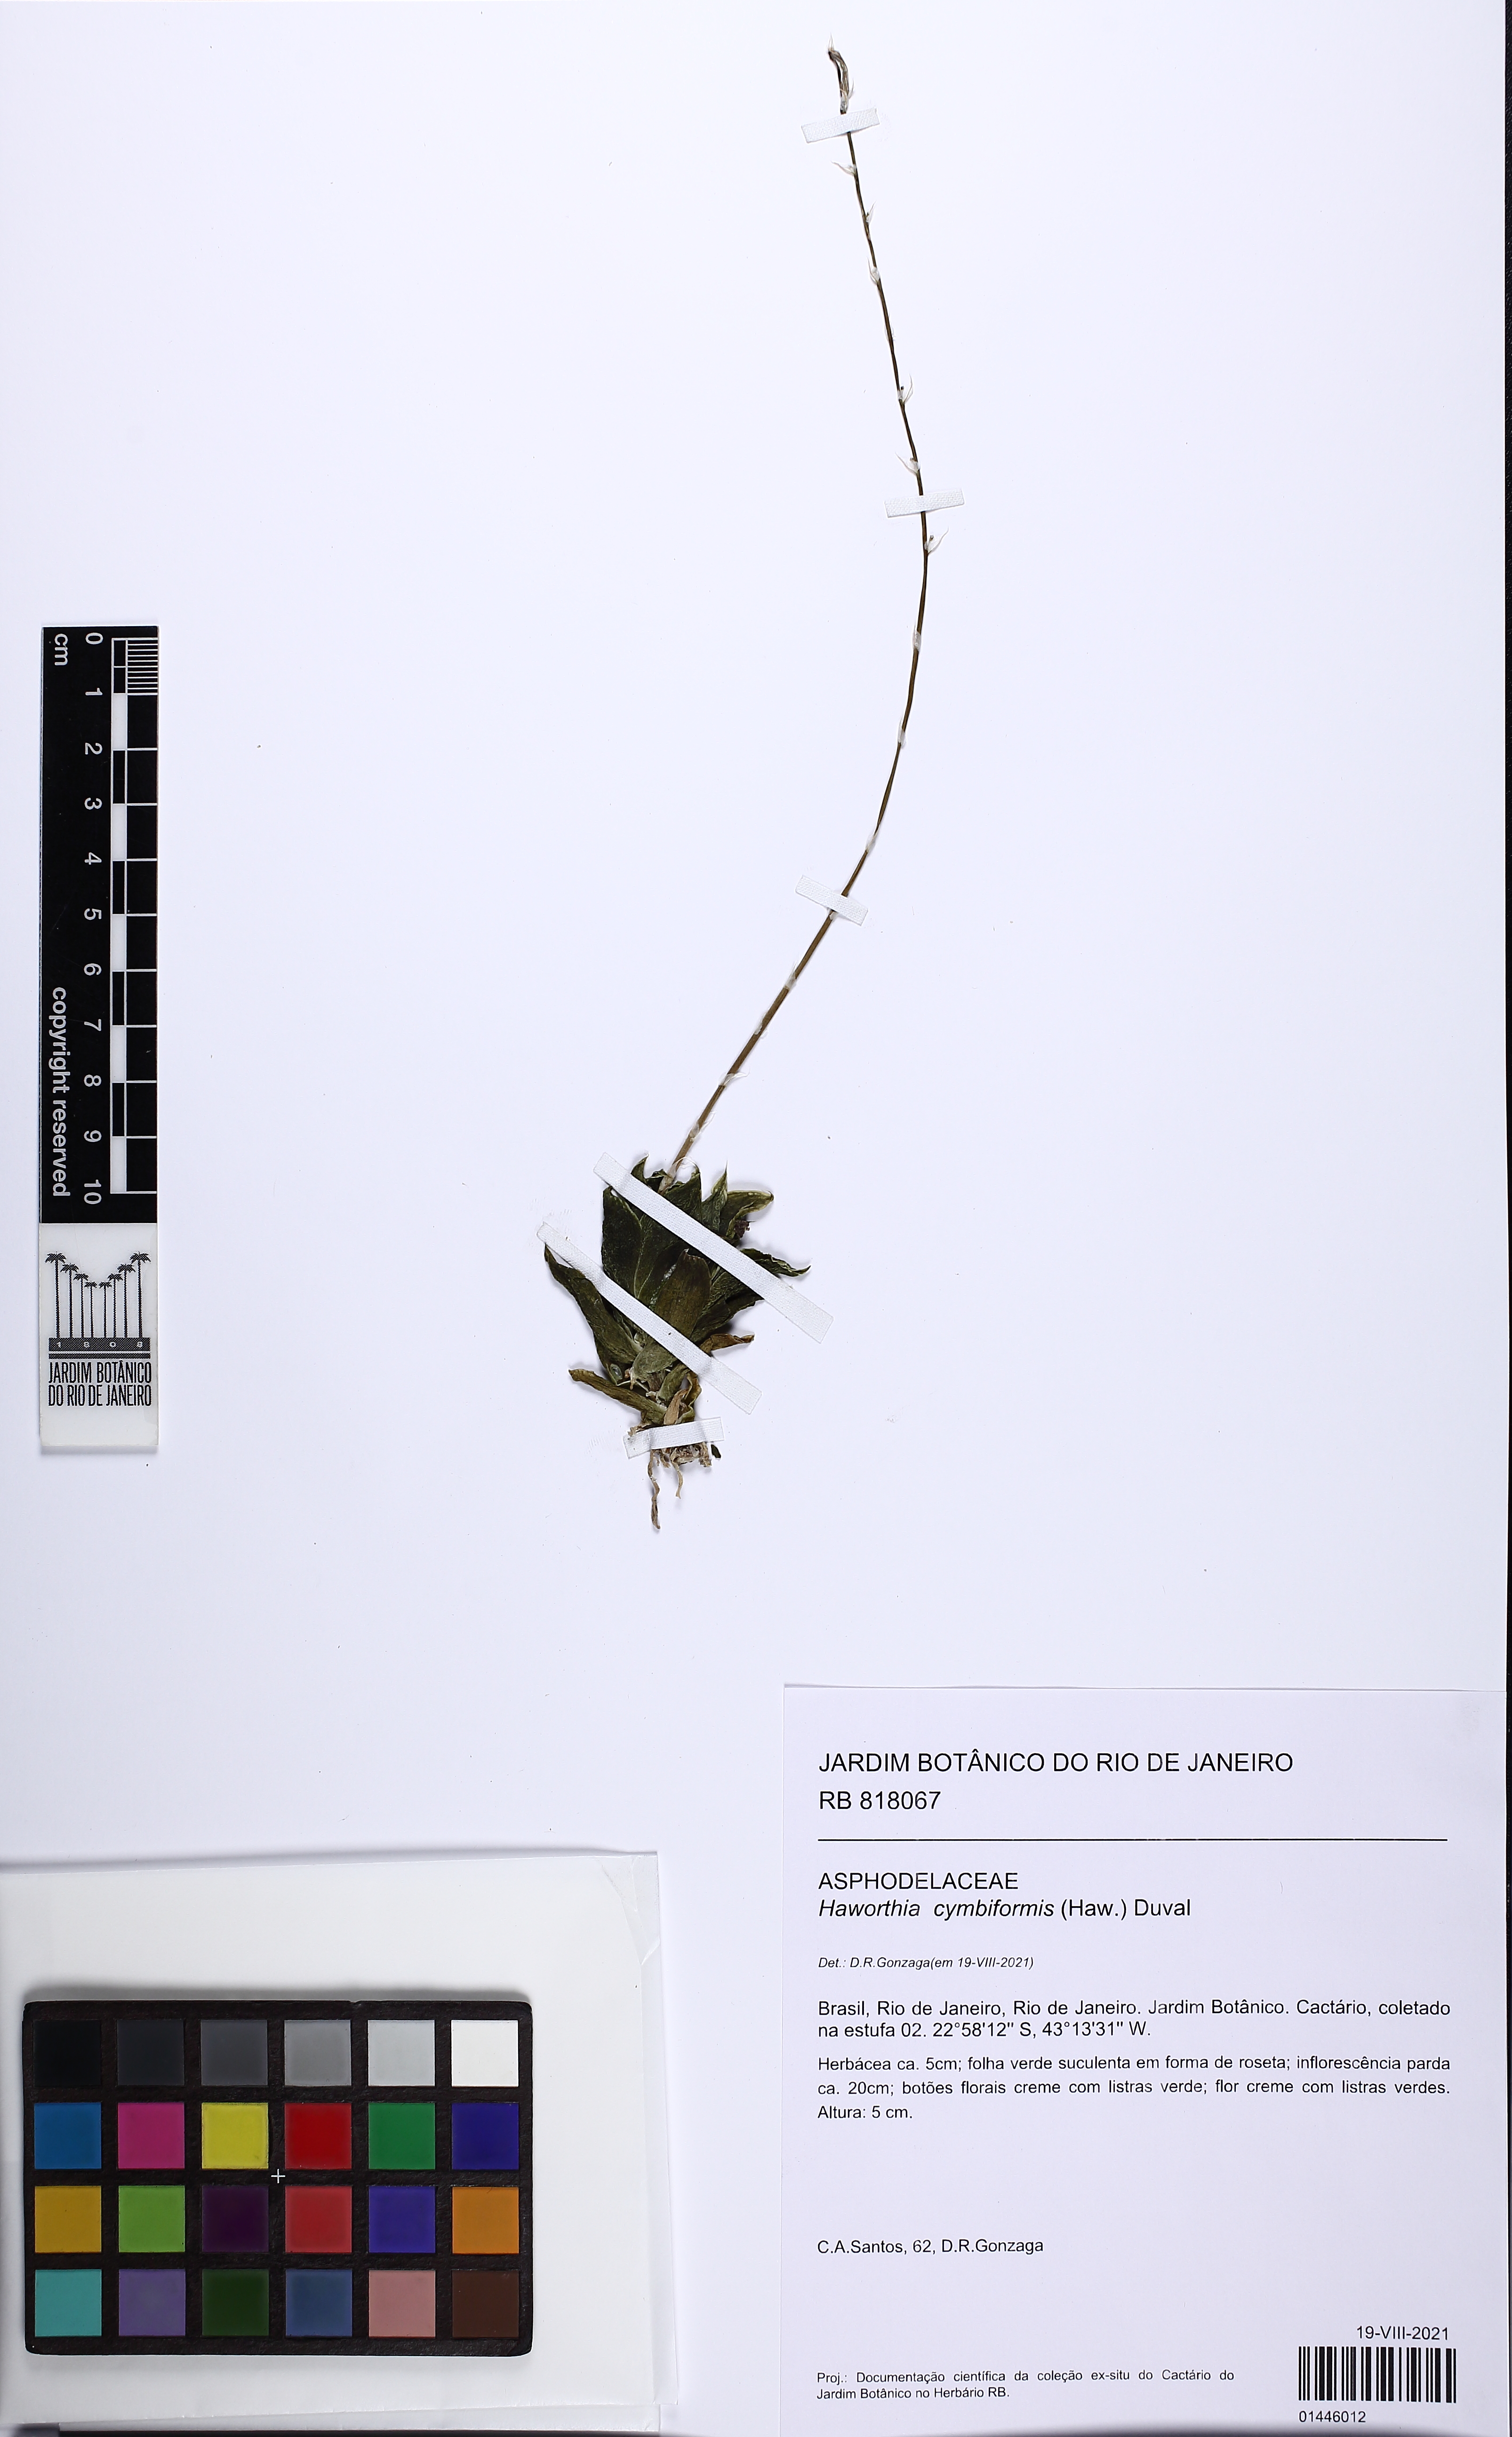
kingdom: Plantae
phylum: Tracheophyta
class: Liliopsida
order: Asparagales
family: Asphodelaceae
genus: Haworthia
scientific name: Haworthia cymbiformis
